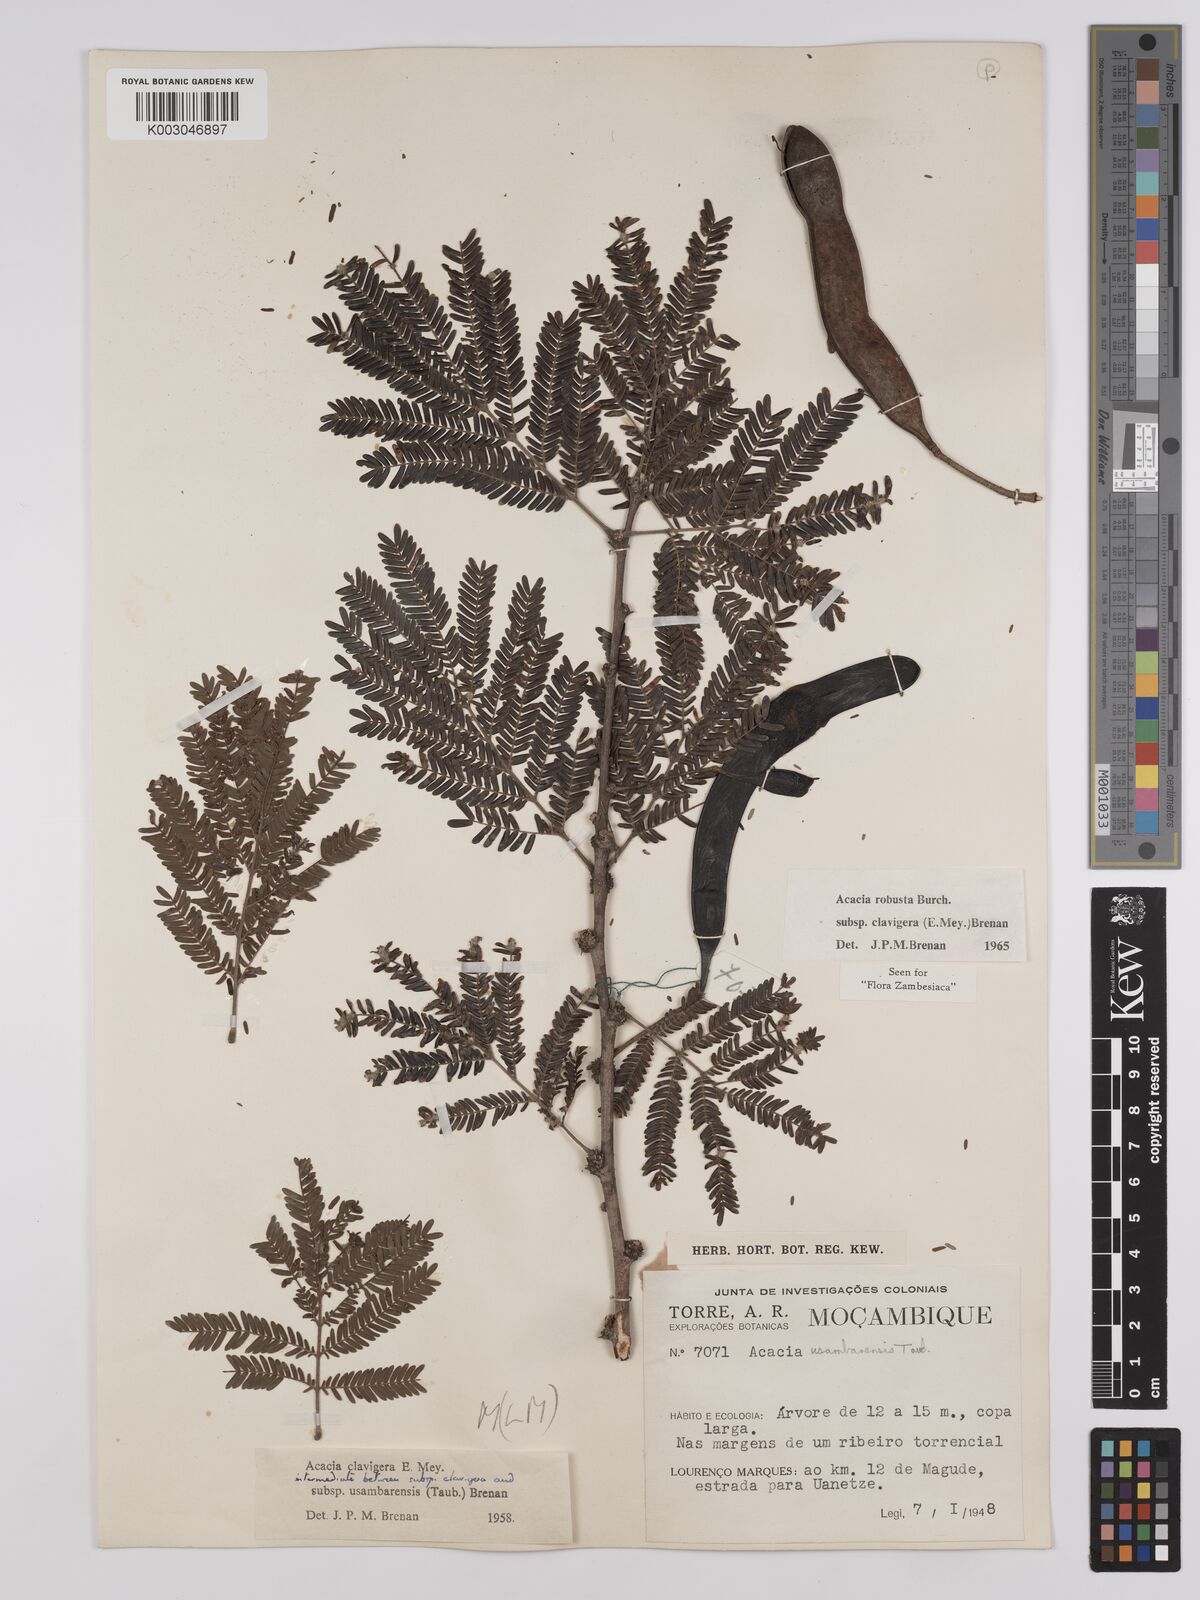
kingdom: Plantae
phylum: Tracheophyta
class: Magnoliopsida
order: Fabales
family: Fabaceae
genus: Vachellia
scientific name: Vachellia robusta
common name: Ankle thorn
